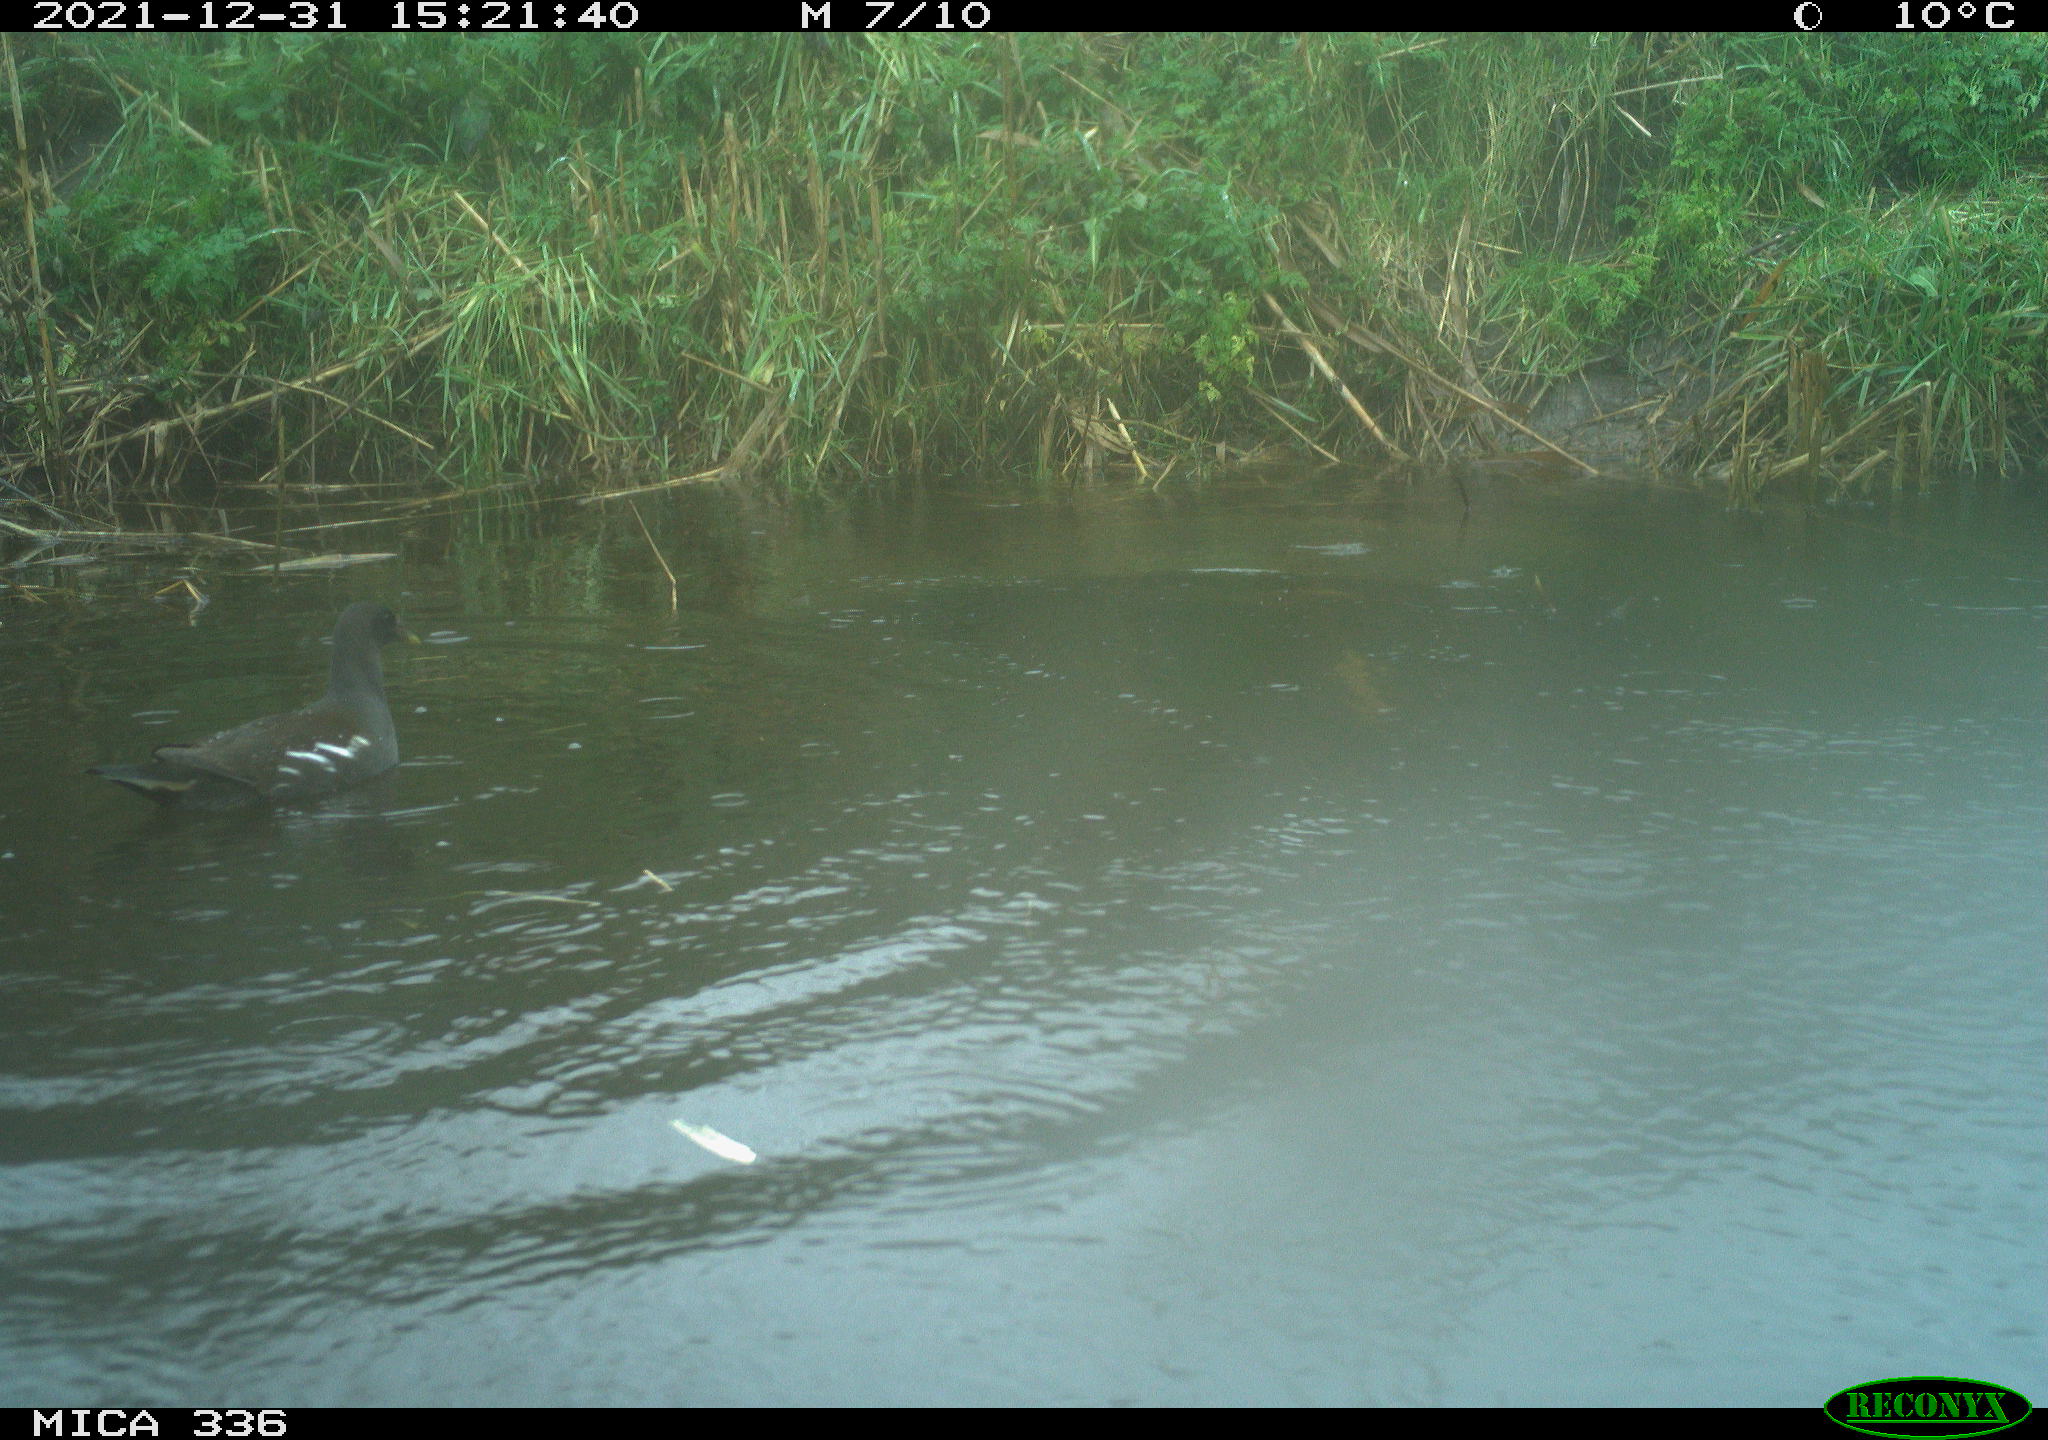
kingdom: Animalia
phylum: Chordata
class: Aves
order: Gruiformes
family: Rallidae
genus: Gallinula
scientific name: Gallinula chloropus
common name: Common moorhen
